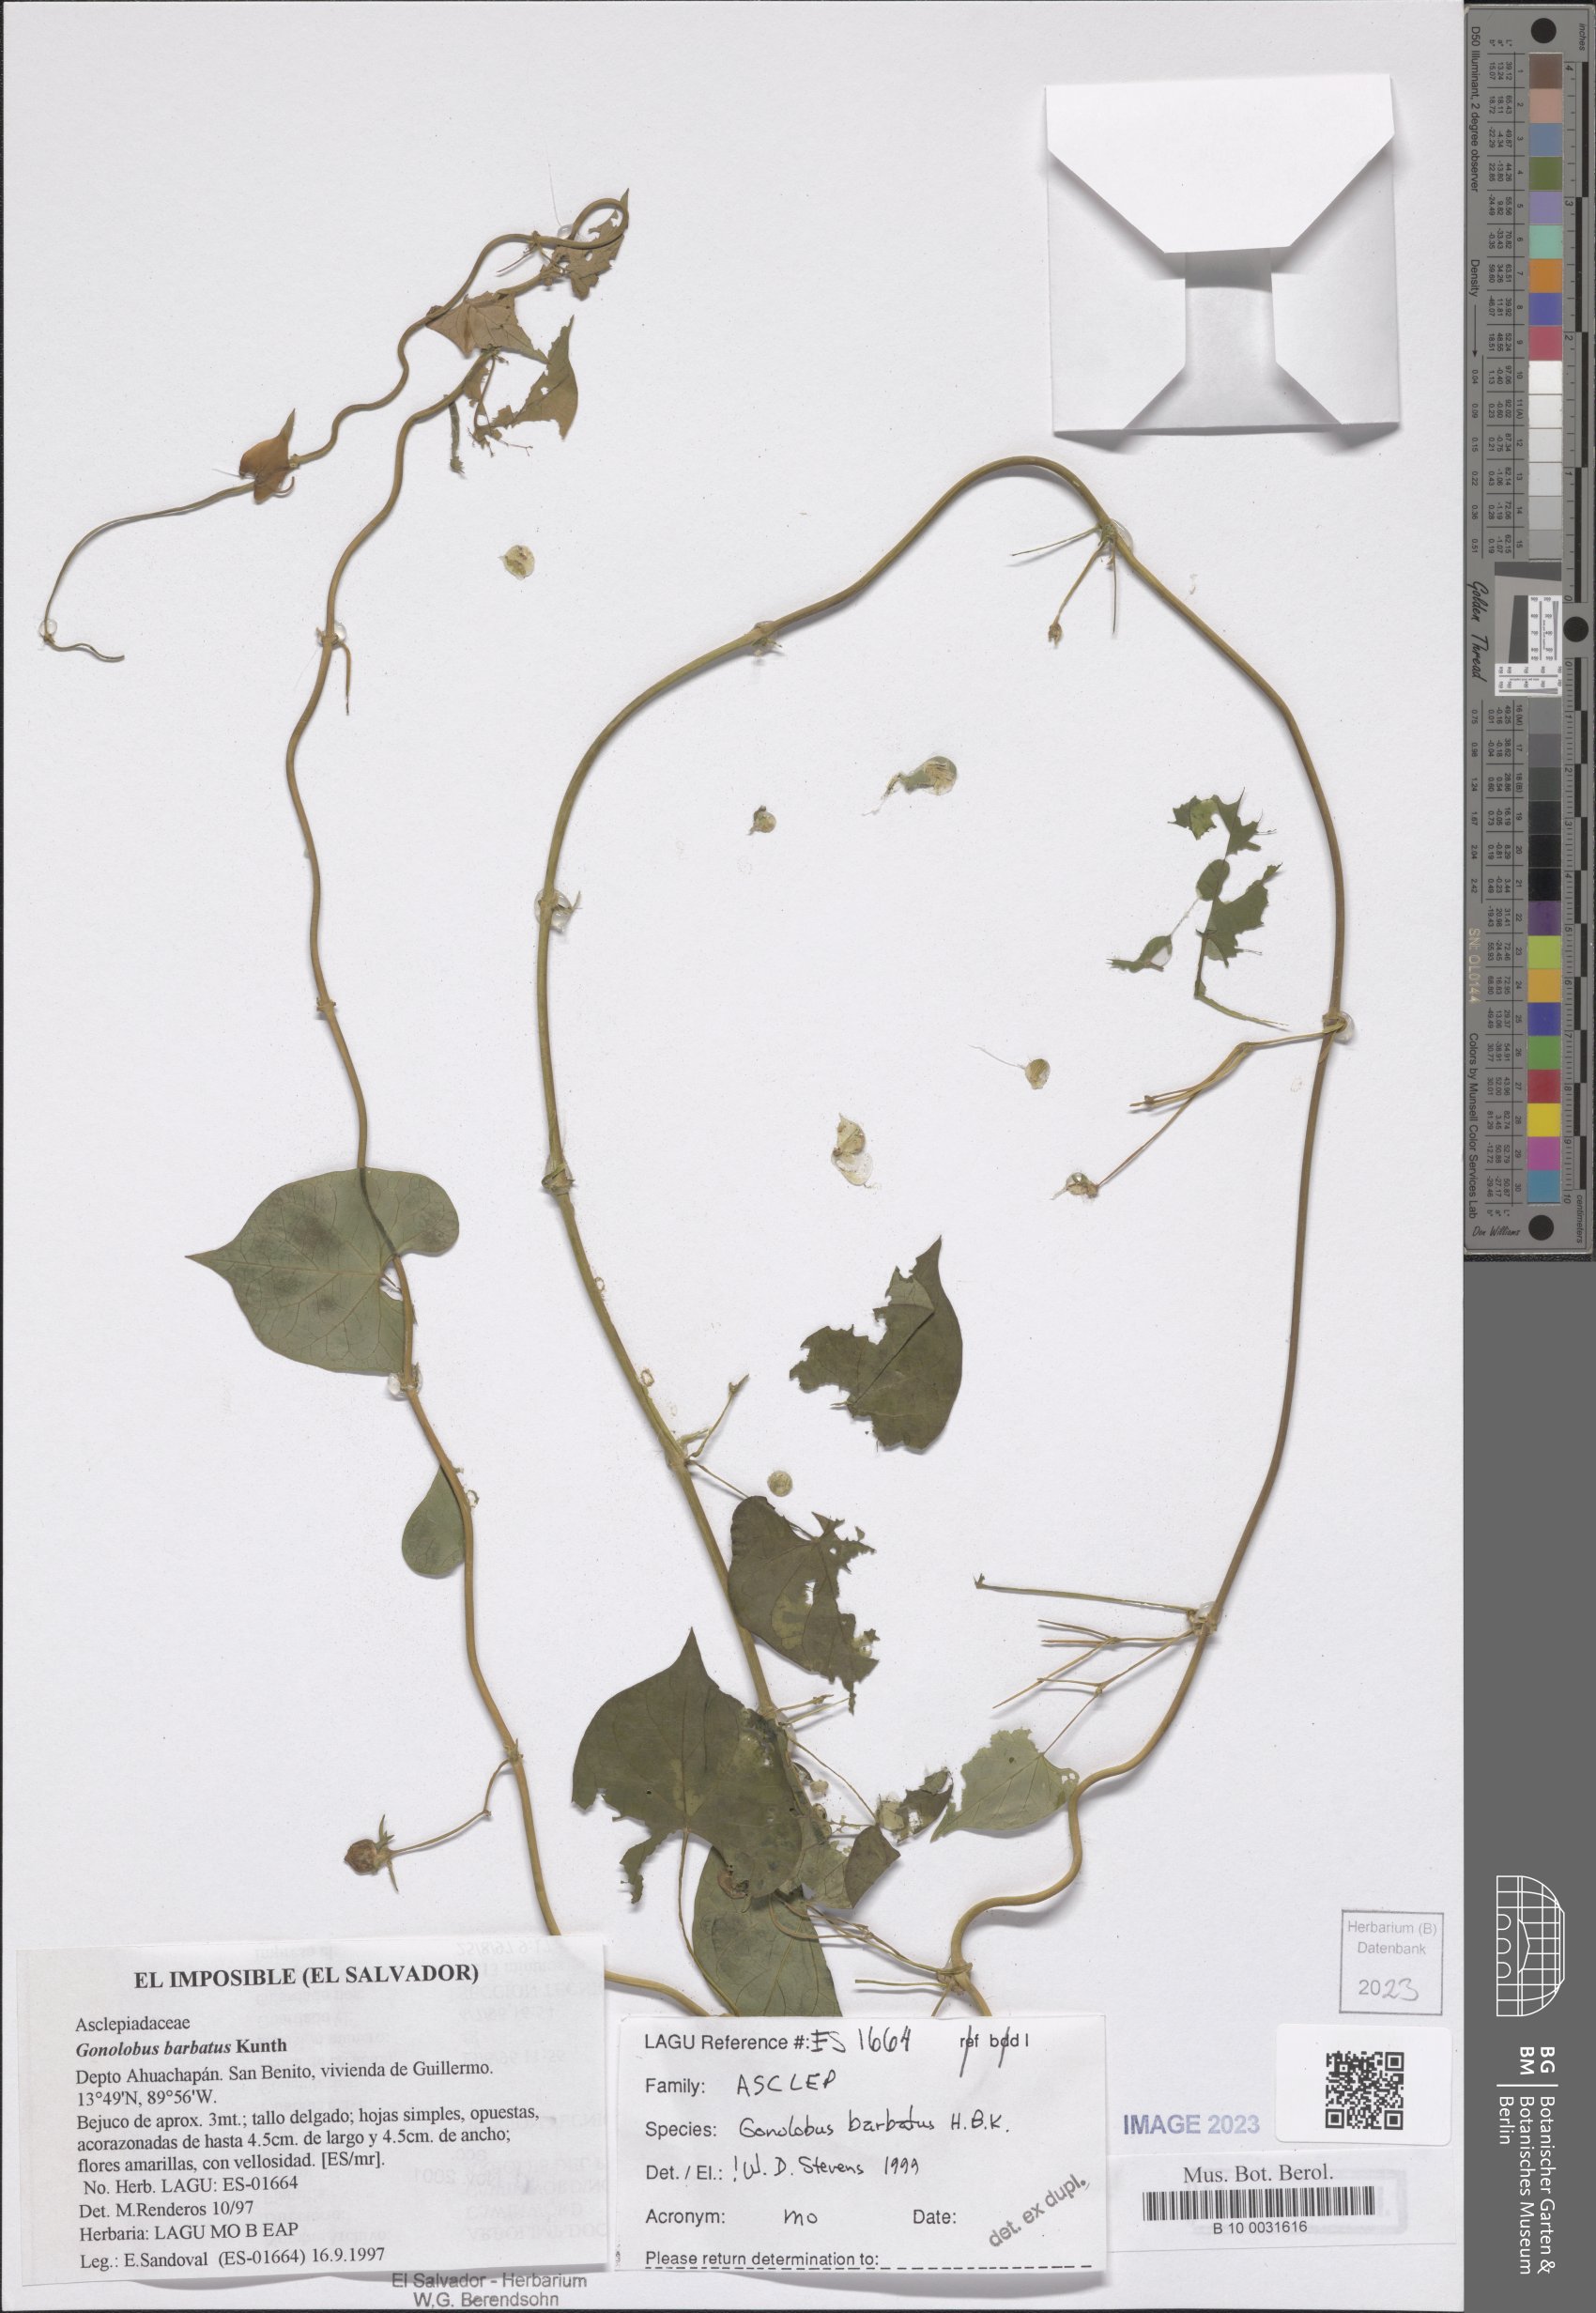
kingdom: Plantae
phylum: Tracheophyta
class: Magnoliopsida
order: Gentianales
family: Apocynaceae
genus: Gonolobus
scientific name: Gonolobus barbatus
